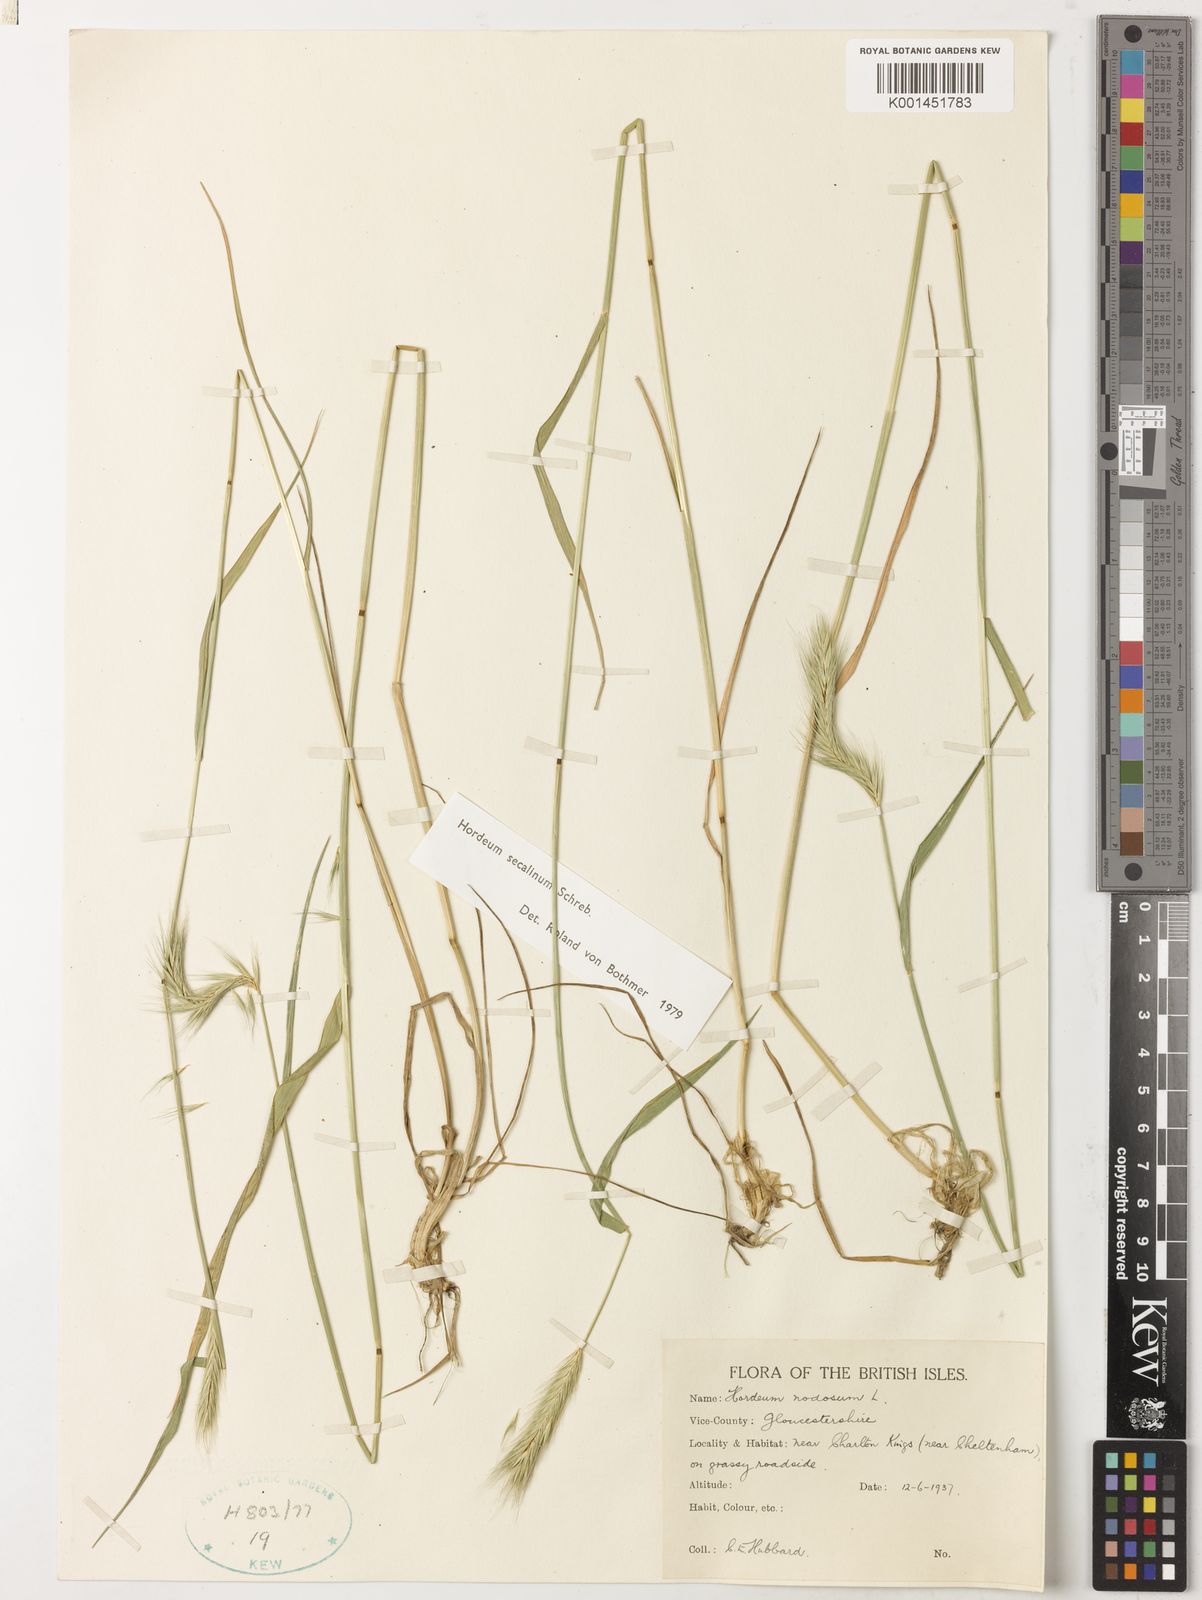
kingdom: Plantae
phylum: Tracheophyta
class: Liliopsida
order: Poales
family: Poaceae
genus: Hordeum
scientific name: Hordeum secalinum
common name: Meadow barley
